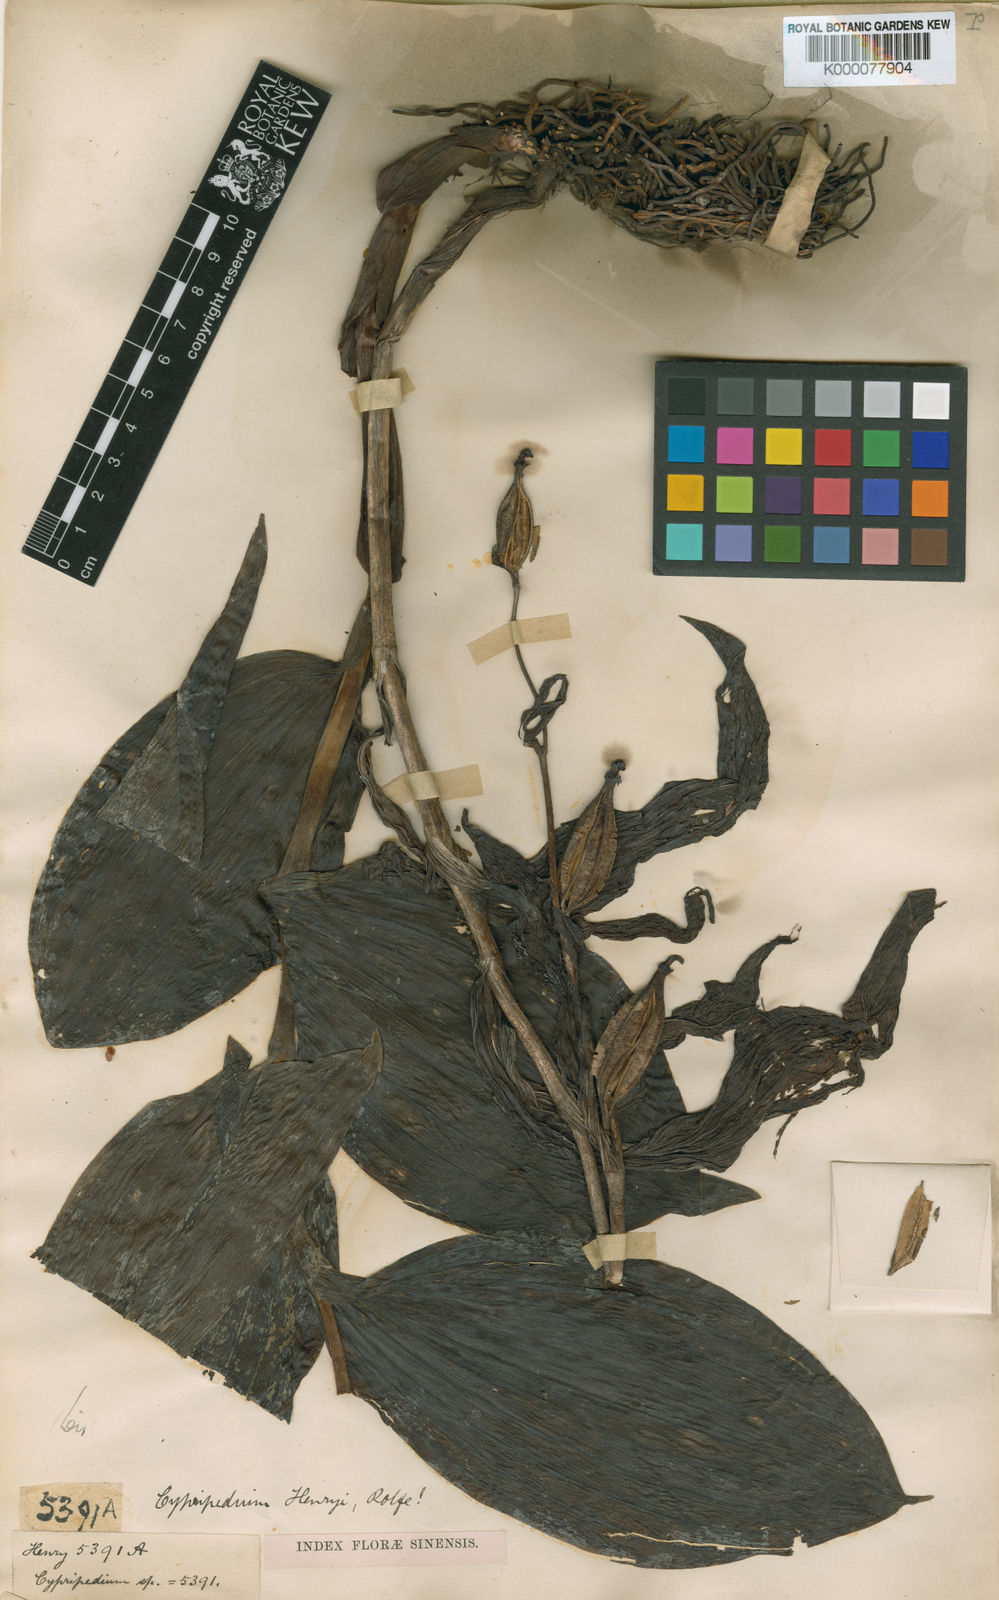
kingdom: Plantae
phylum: Tracheophyta
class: Liliopsida
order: Asparagales
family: Orchidaceae
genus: Cypripedium
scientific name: Cypripedium henryi
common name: Henry's cypripedium
